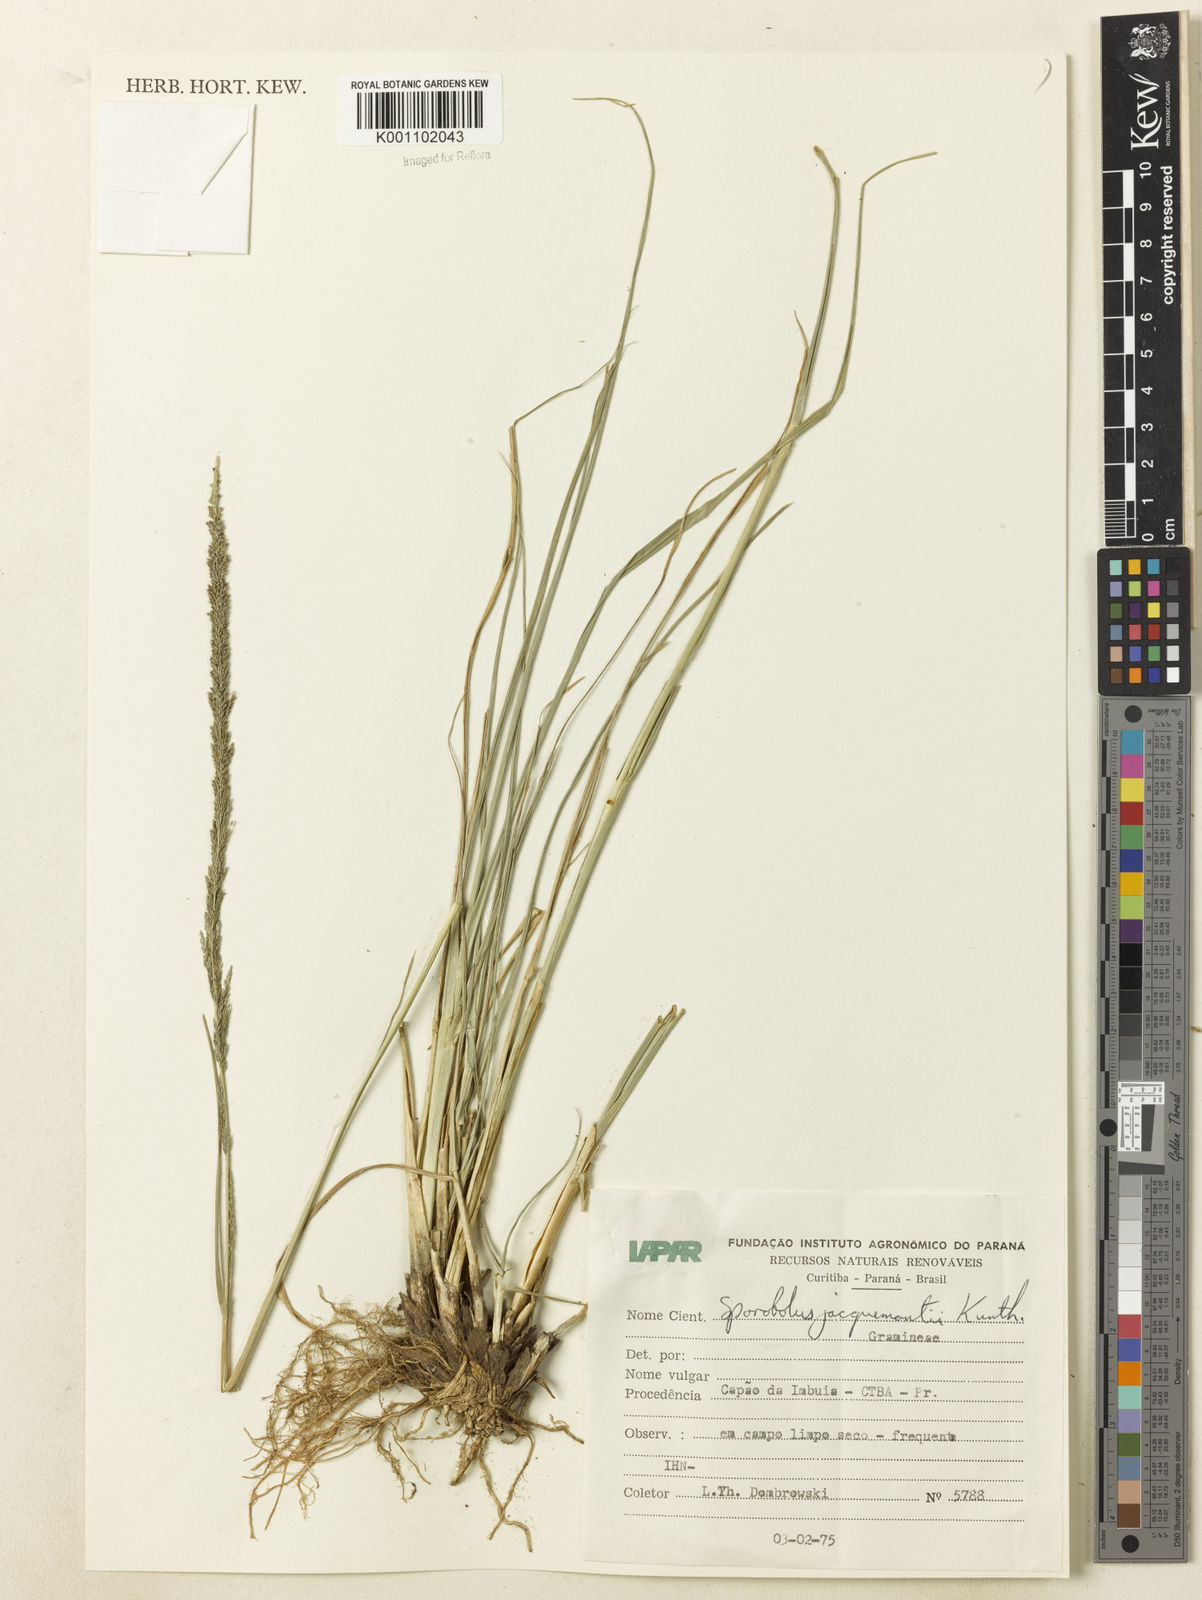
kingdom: Plantae
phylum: Tracheophyta
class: Liliopsida
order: Poales
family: Poaceae
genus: Sporobolus
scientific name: Sporobolus pyramidalis
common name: West indian dropseed
